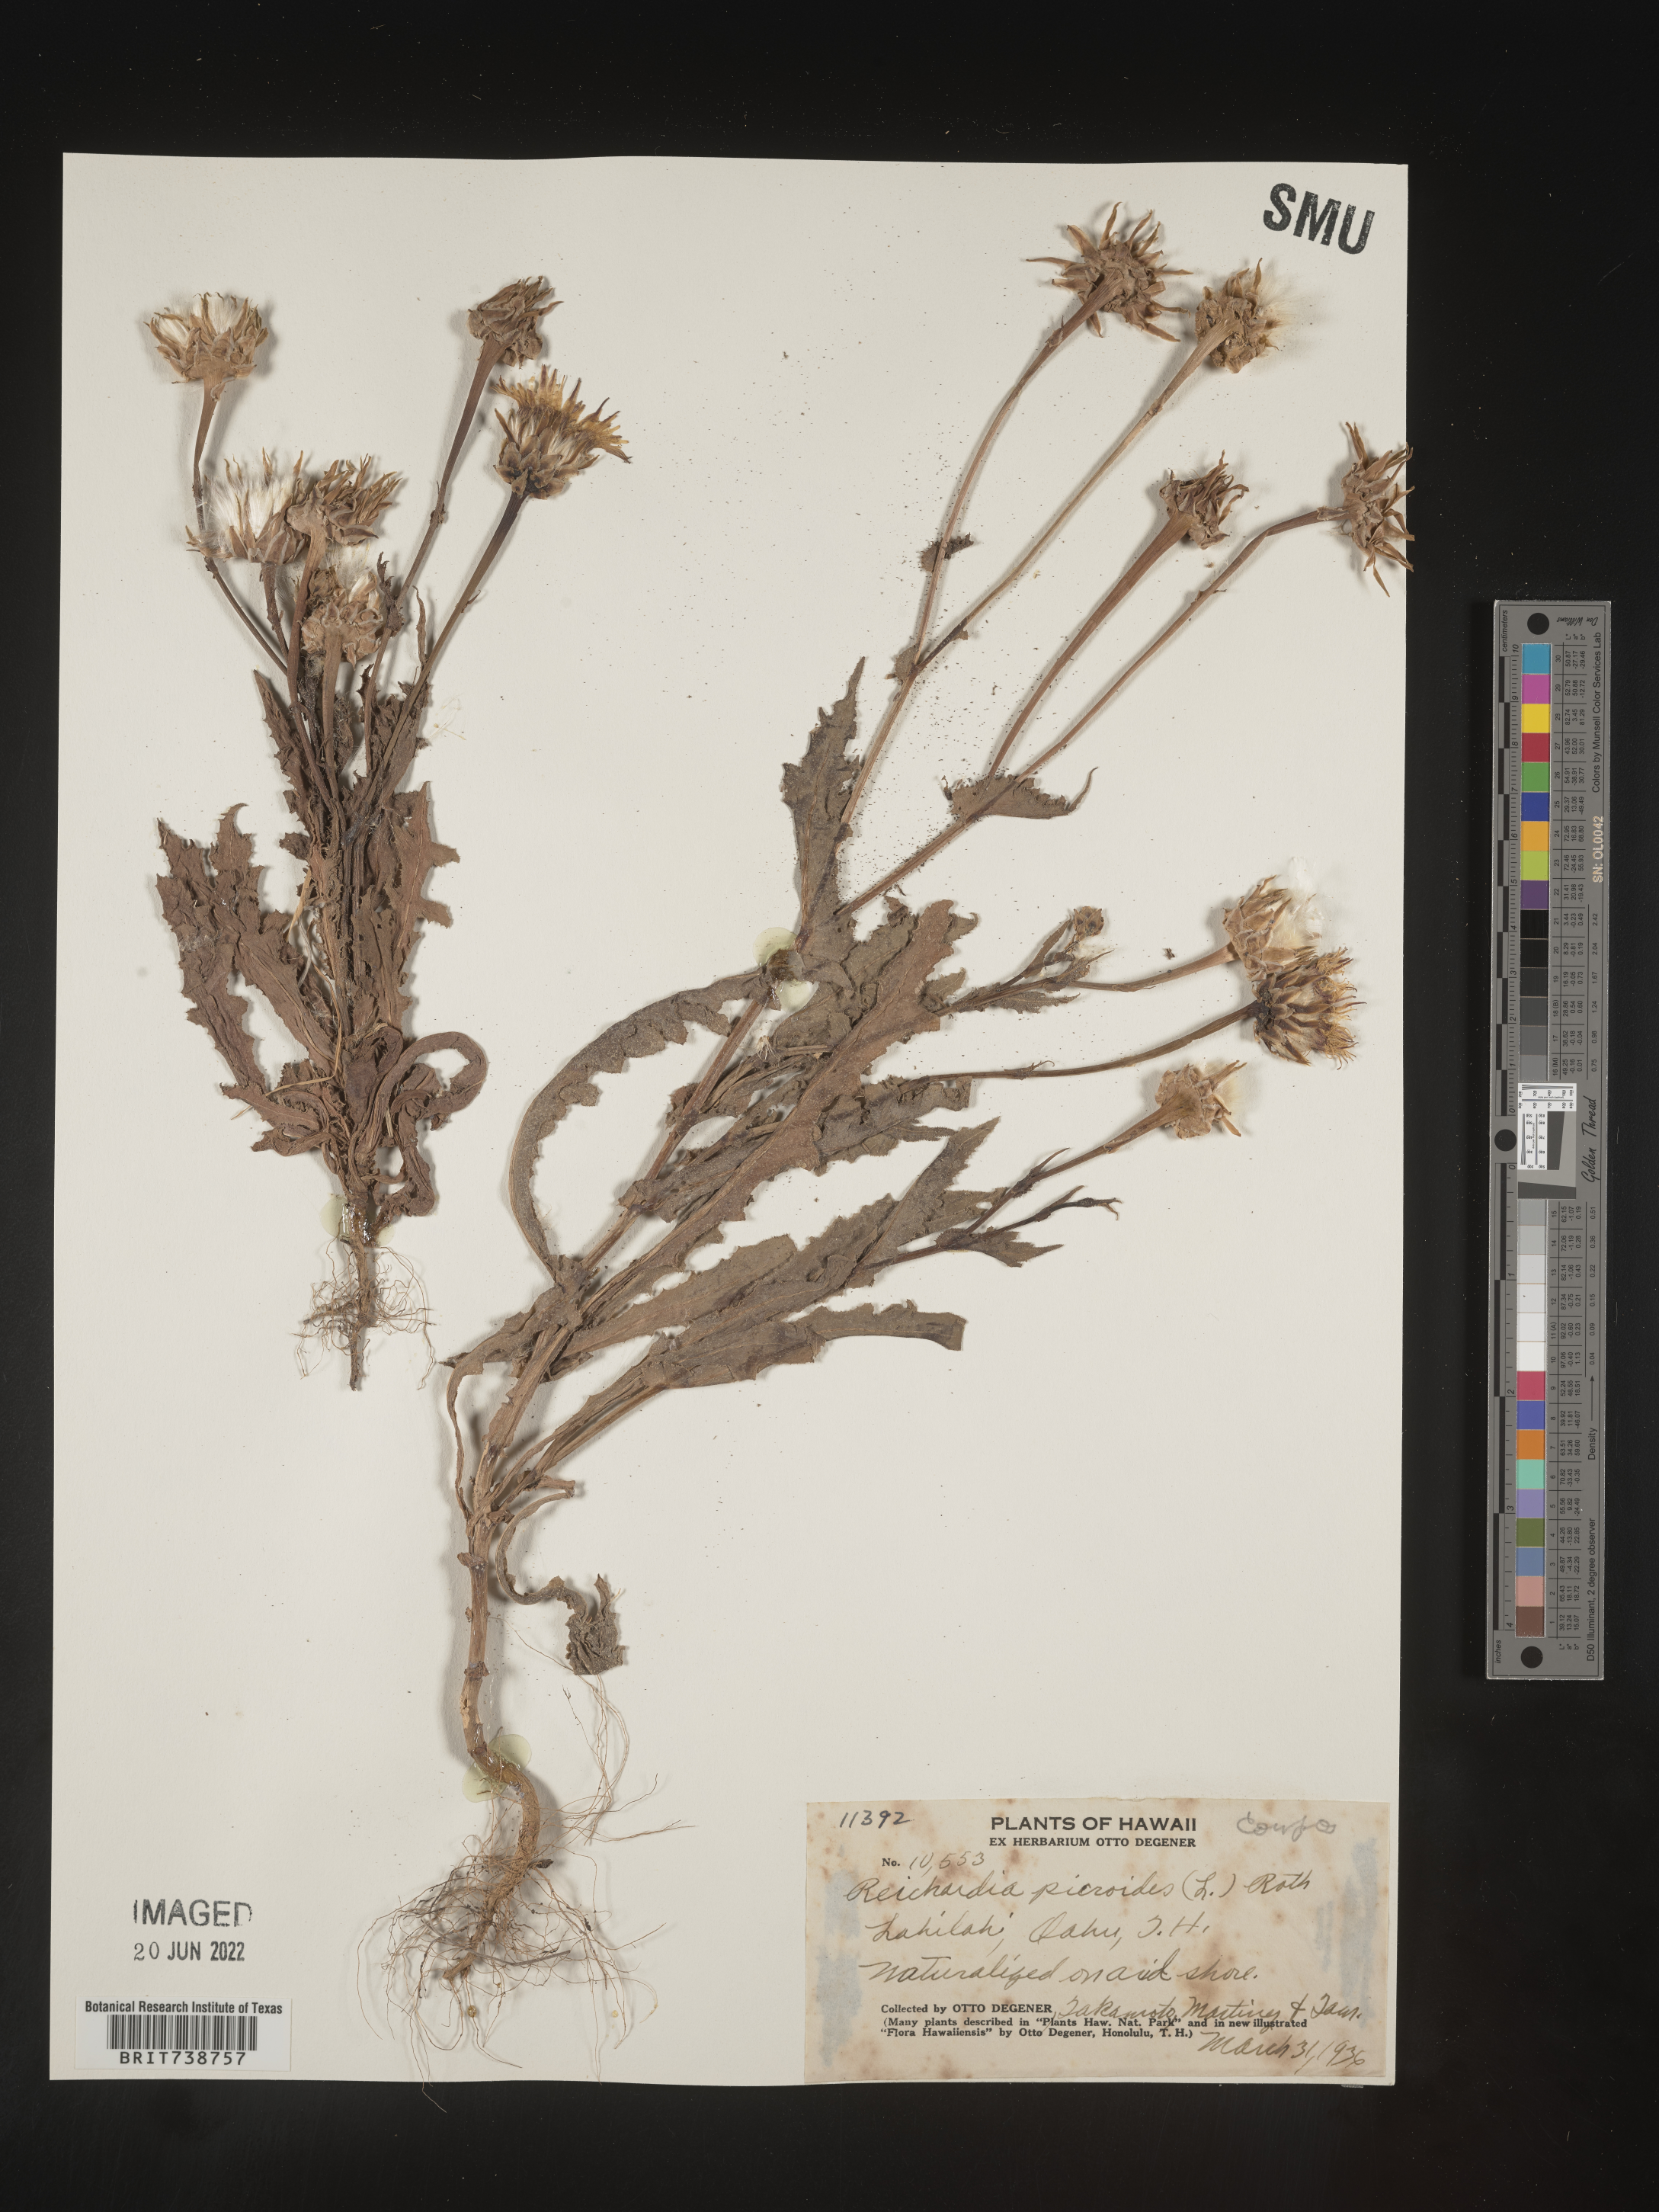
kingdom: Plantae
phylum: Tracheophyta
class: Magnoliopsida
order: Asterales
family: Asteraceae
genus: Reichardia
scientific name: Reichardia picroides
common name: Common brighteyes
